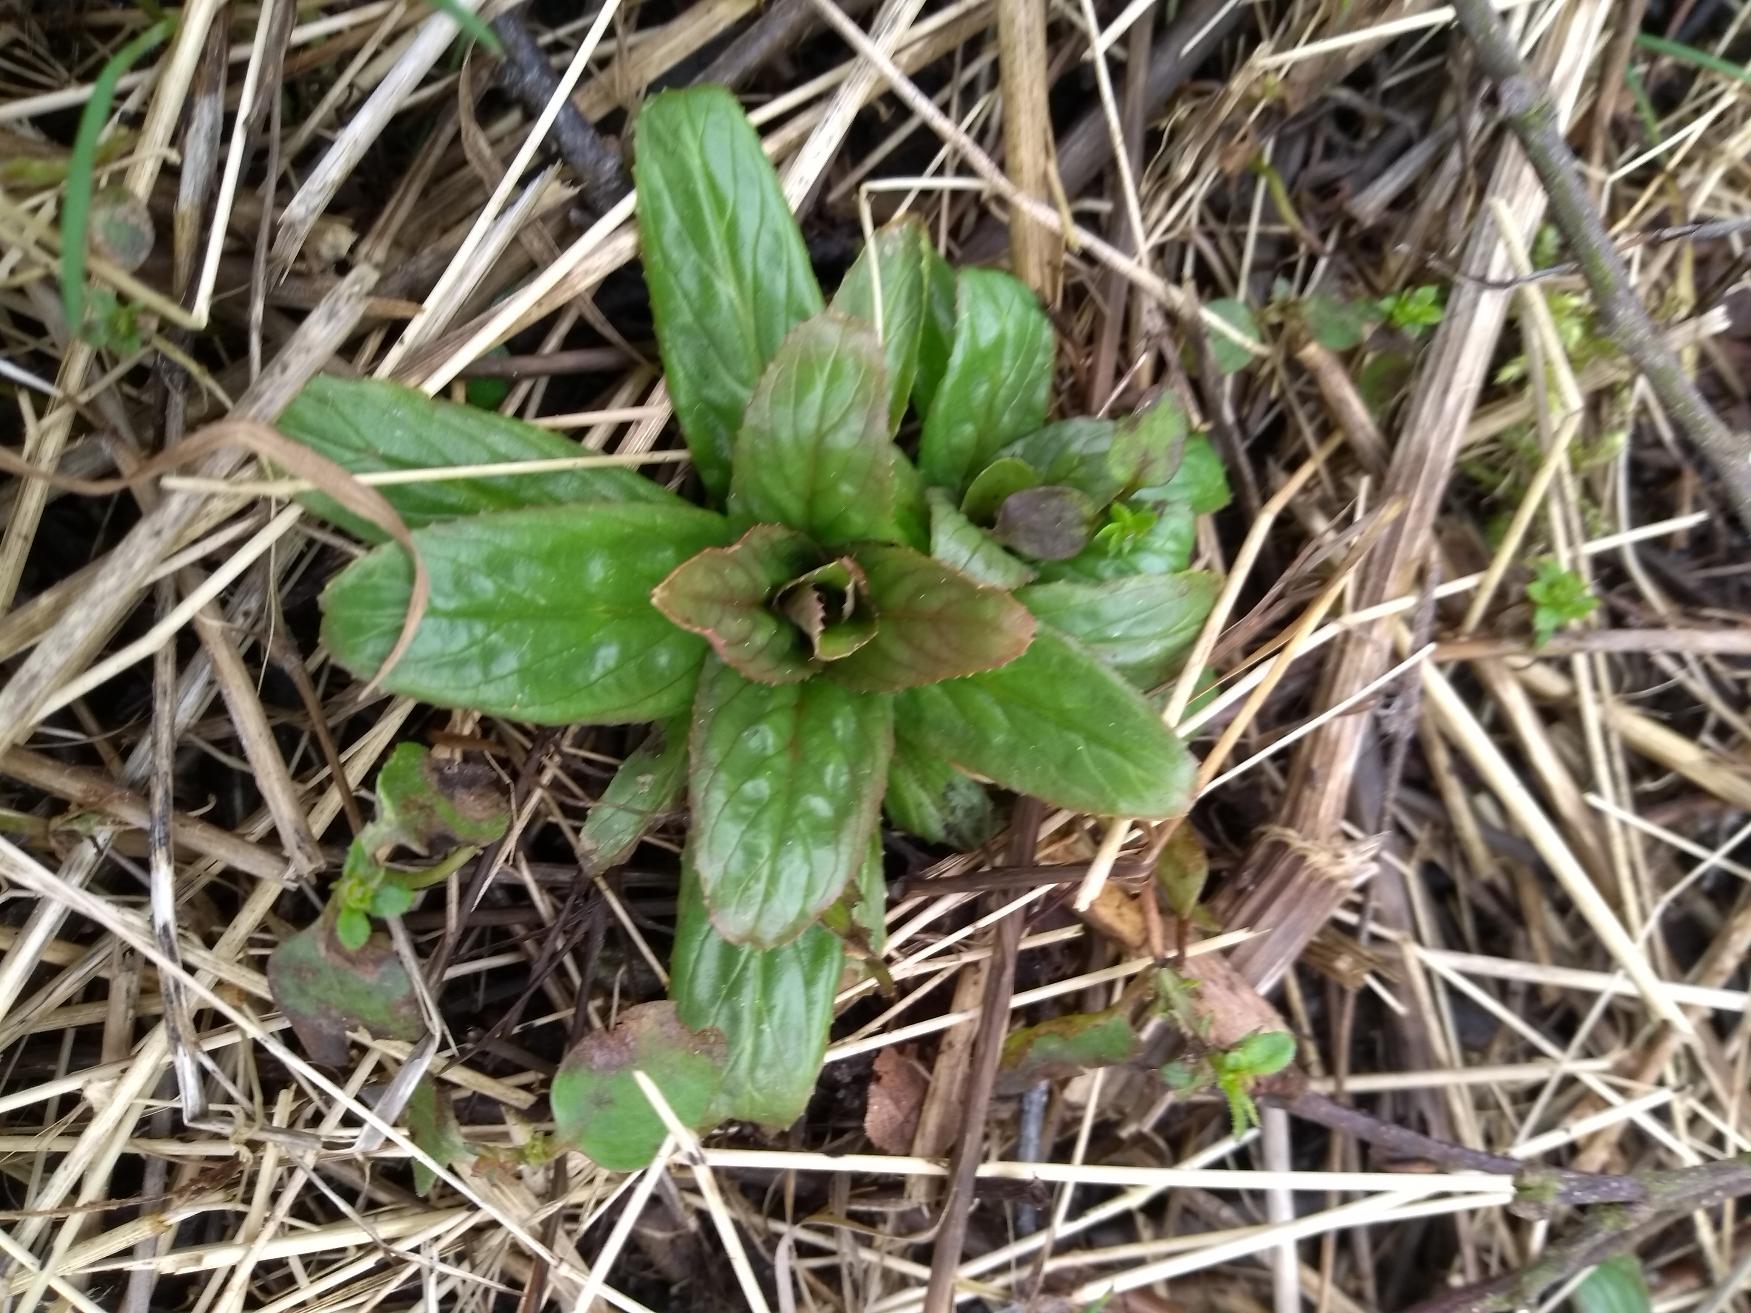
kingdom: Plantae
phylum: Tracheophyta
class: Magnoliopsida
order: Myrtales
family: Onagraceae
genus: Epilobium
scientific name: Epilobium
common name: Dueurtslægten
